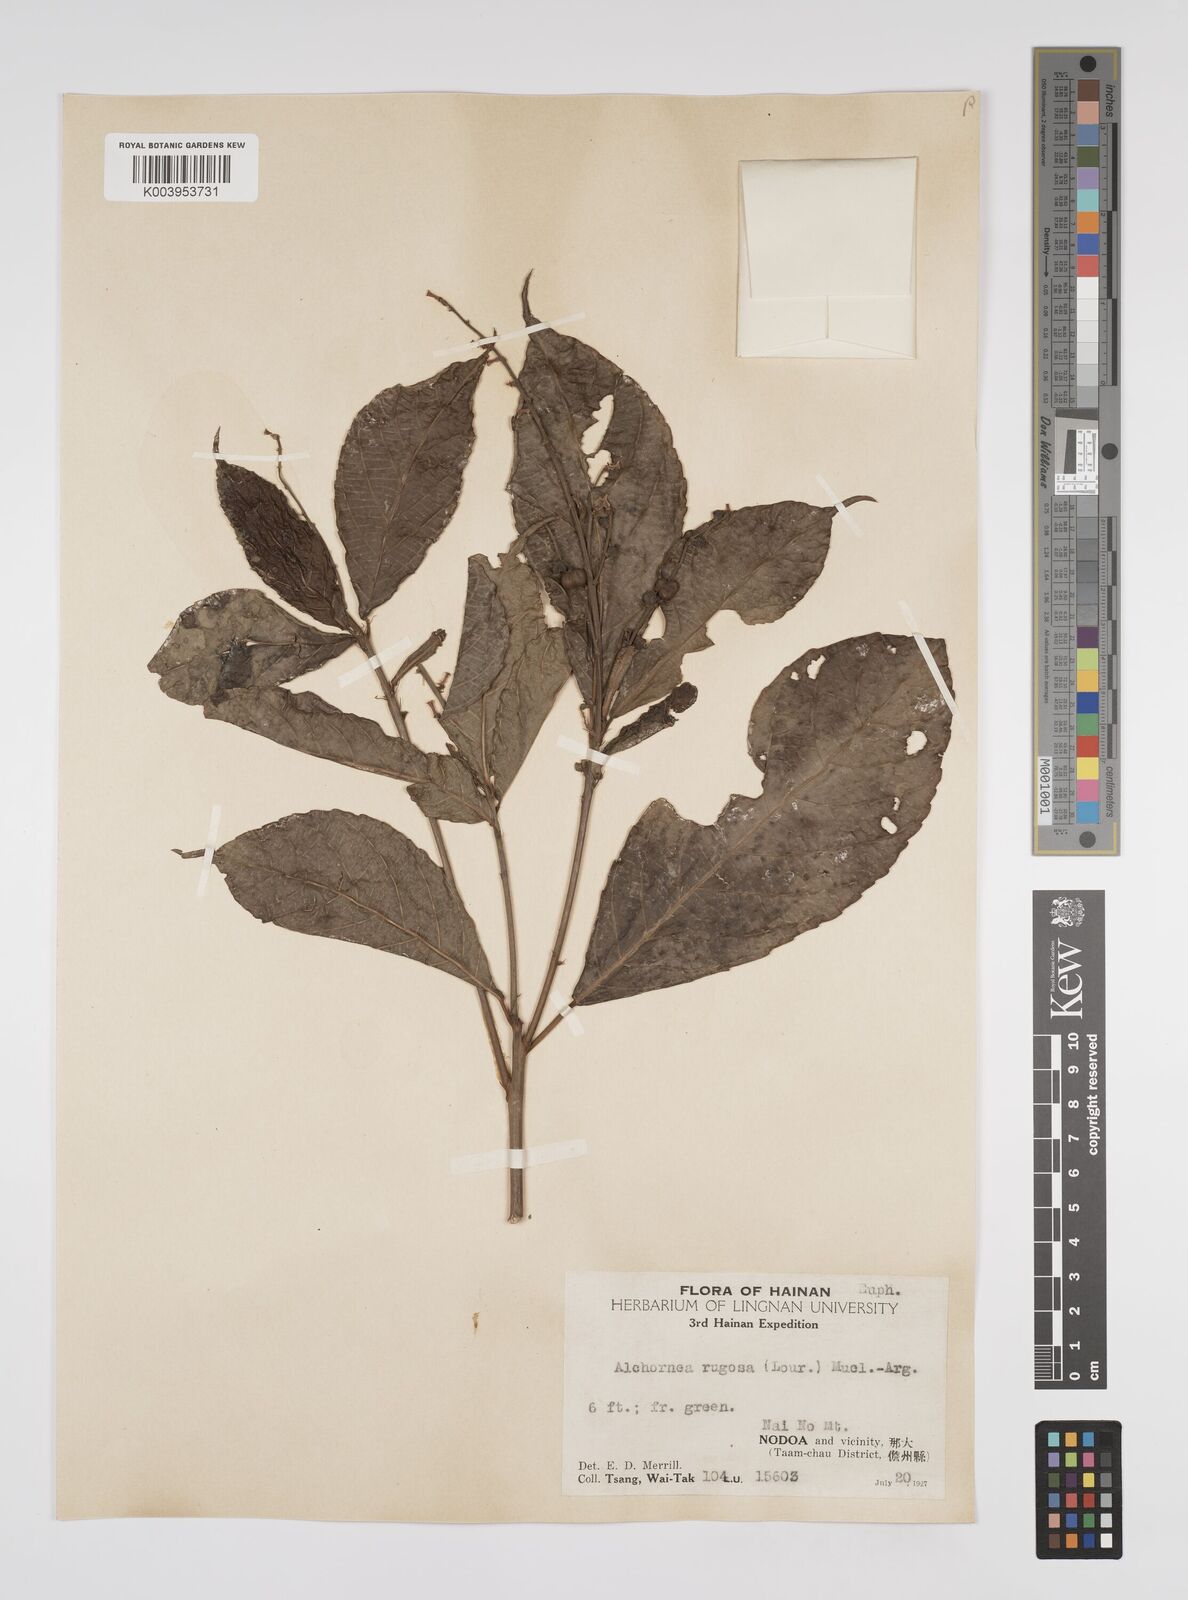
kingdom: Plantae
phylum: Tracheophyta
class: Magnoliopsida
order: Malpighiales
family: Euphorbiaceae
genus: Alchornea
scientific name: Alchornea rugosa
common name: Alchorntree
